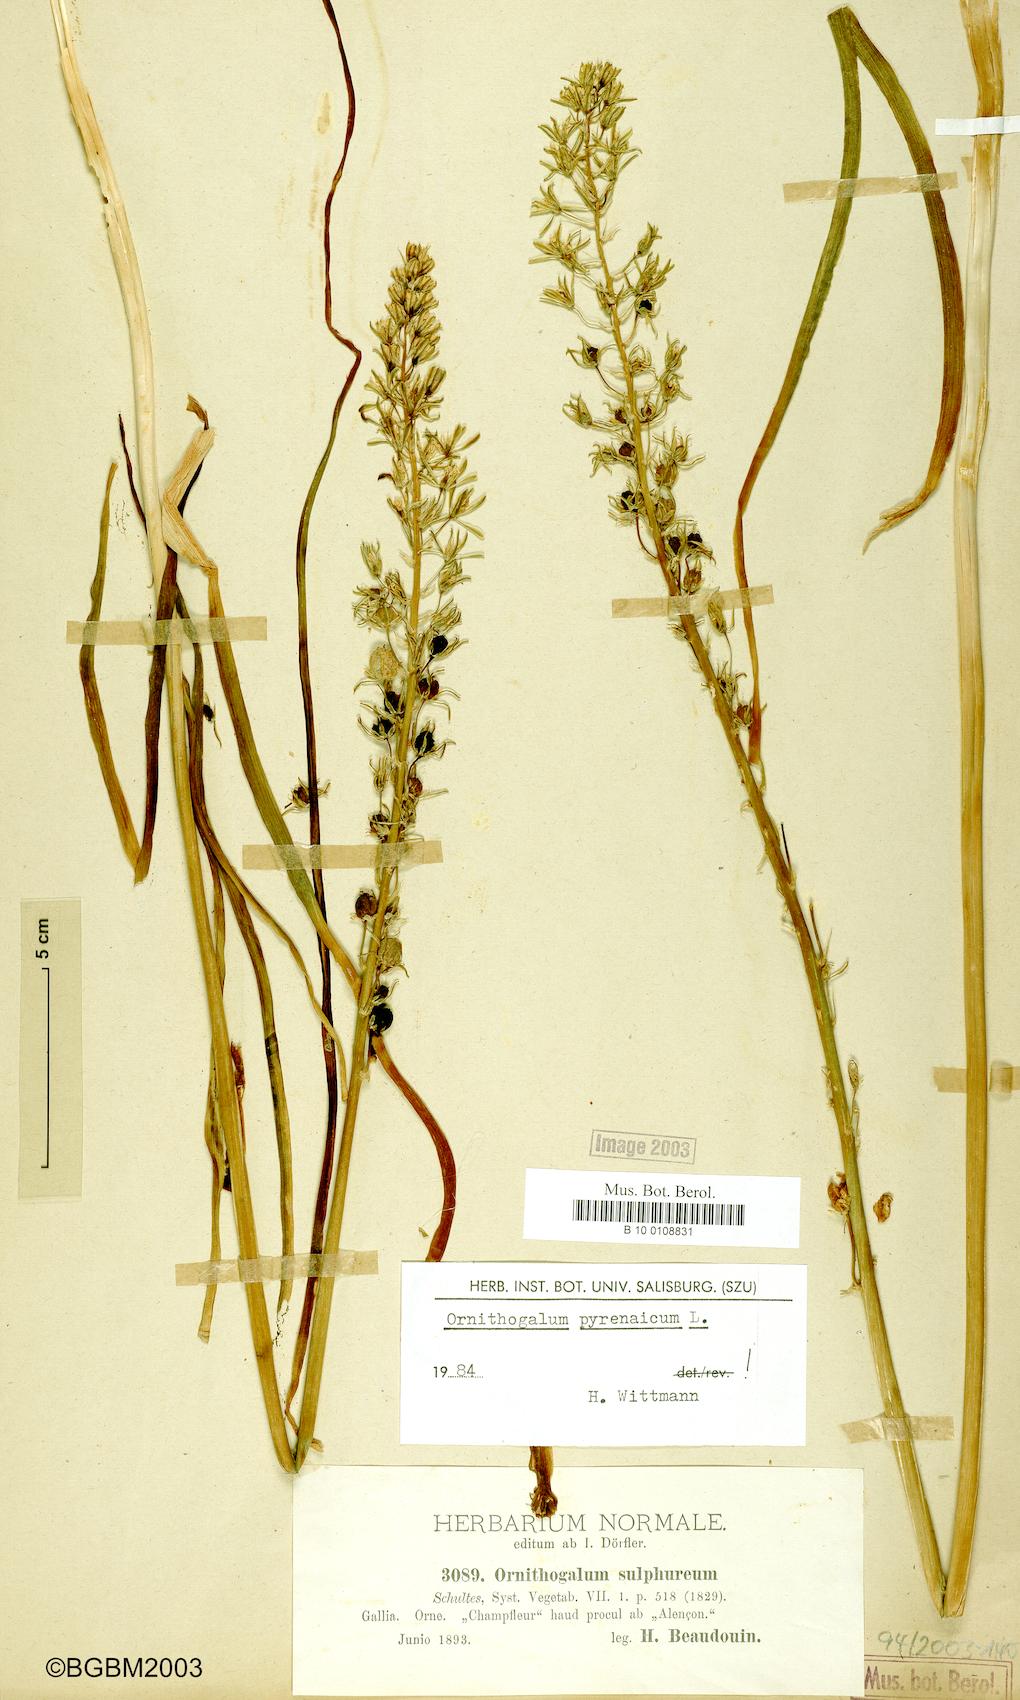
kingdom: Plantae
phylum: Tracheophyta
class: Liliopsida
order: Asparagales
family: Asparagaceae
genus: Ornithogalum
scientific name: Ornithogalum pyrenaicum
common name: Spiked star-of-bethlehem
